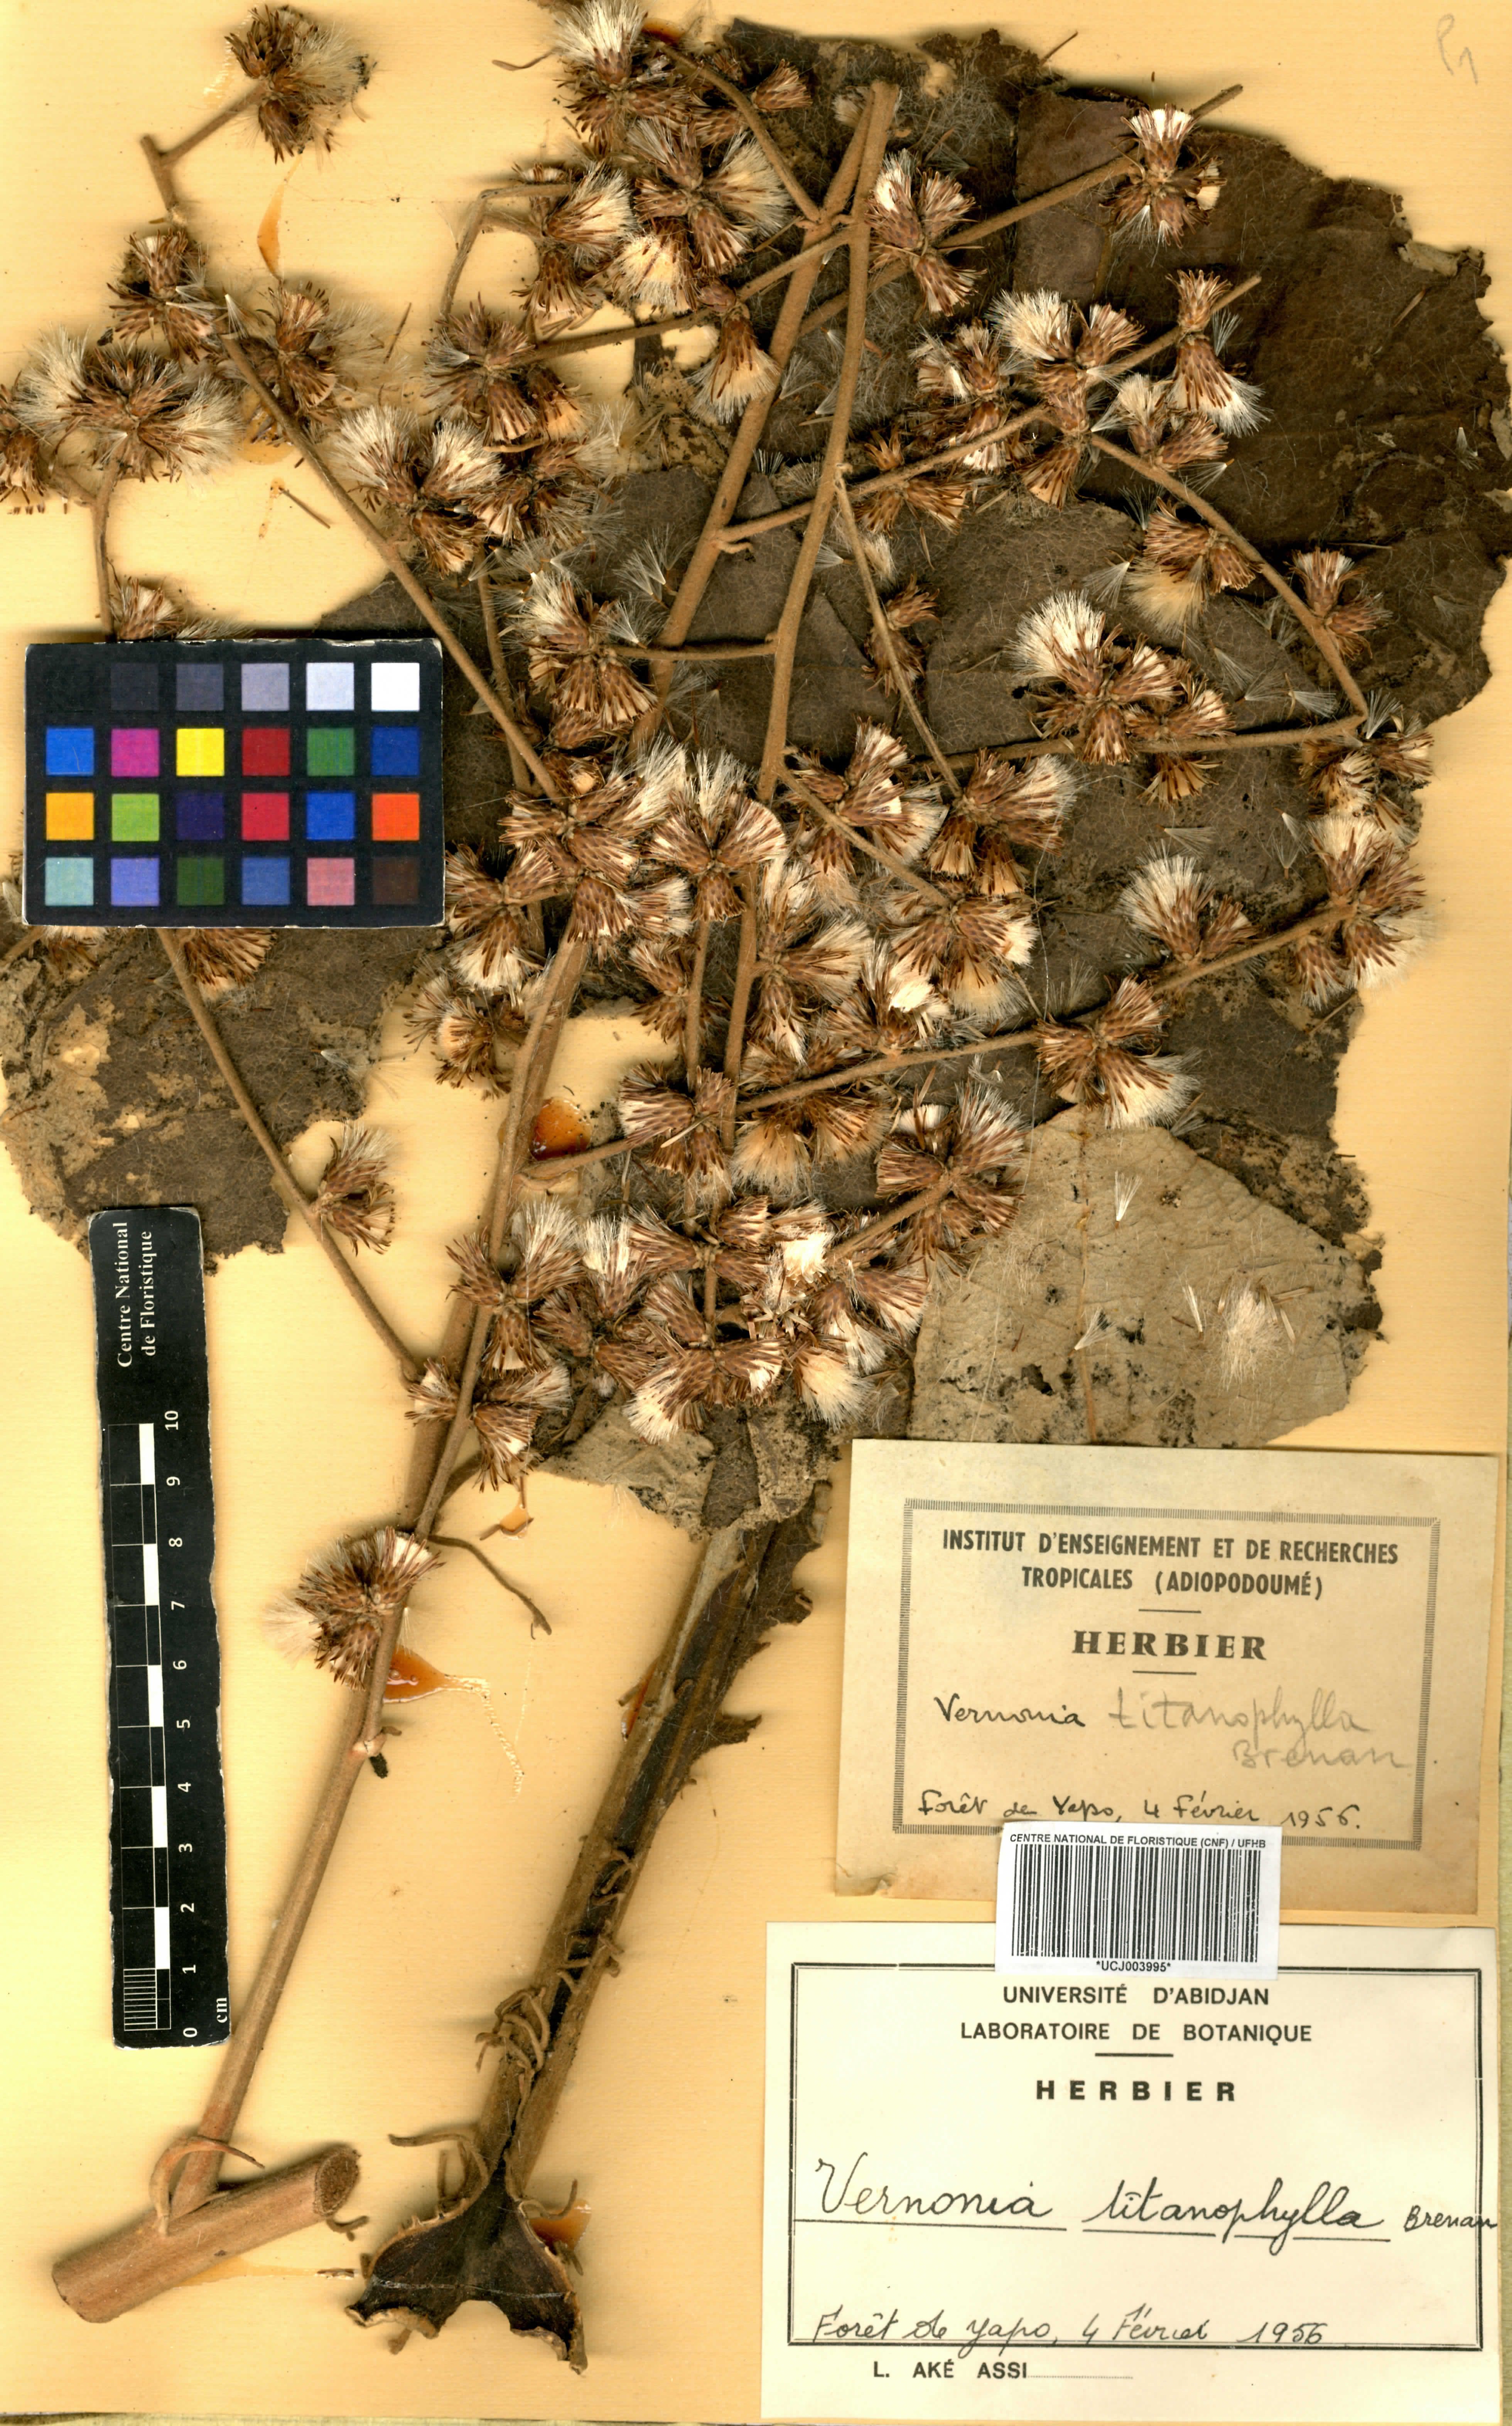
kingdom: Plantae
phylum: Tracheophyta
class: Magnoliopsida
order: Asterales
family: Asteraceae
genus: Brenandendron
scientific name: Brenandendron titanophyllum
